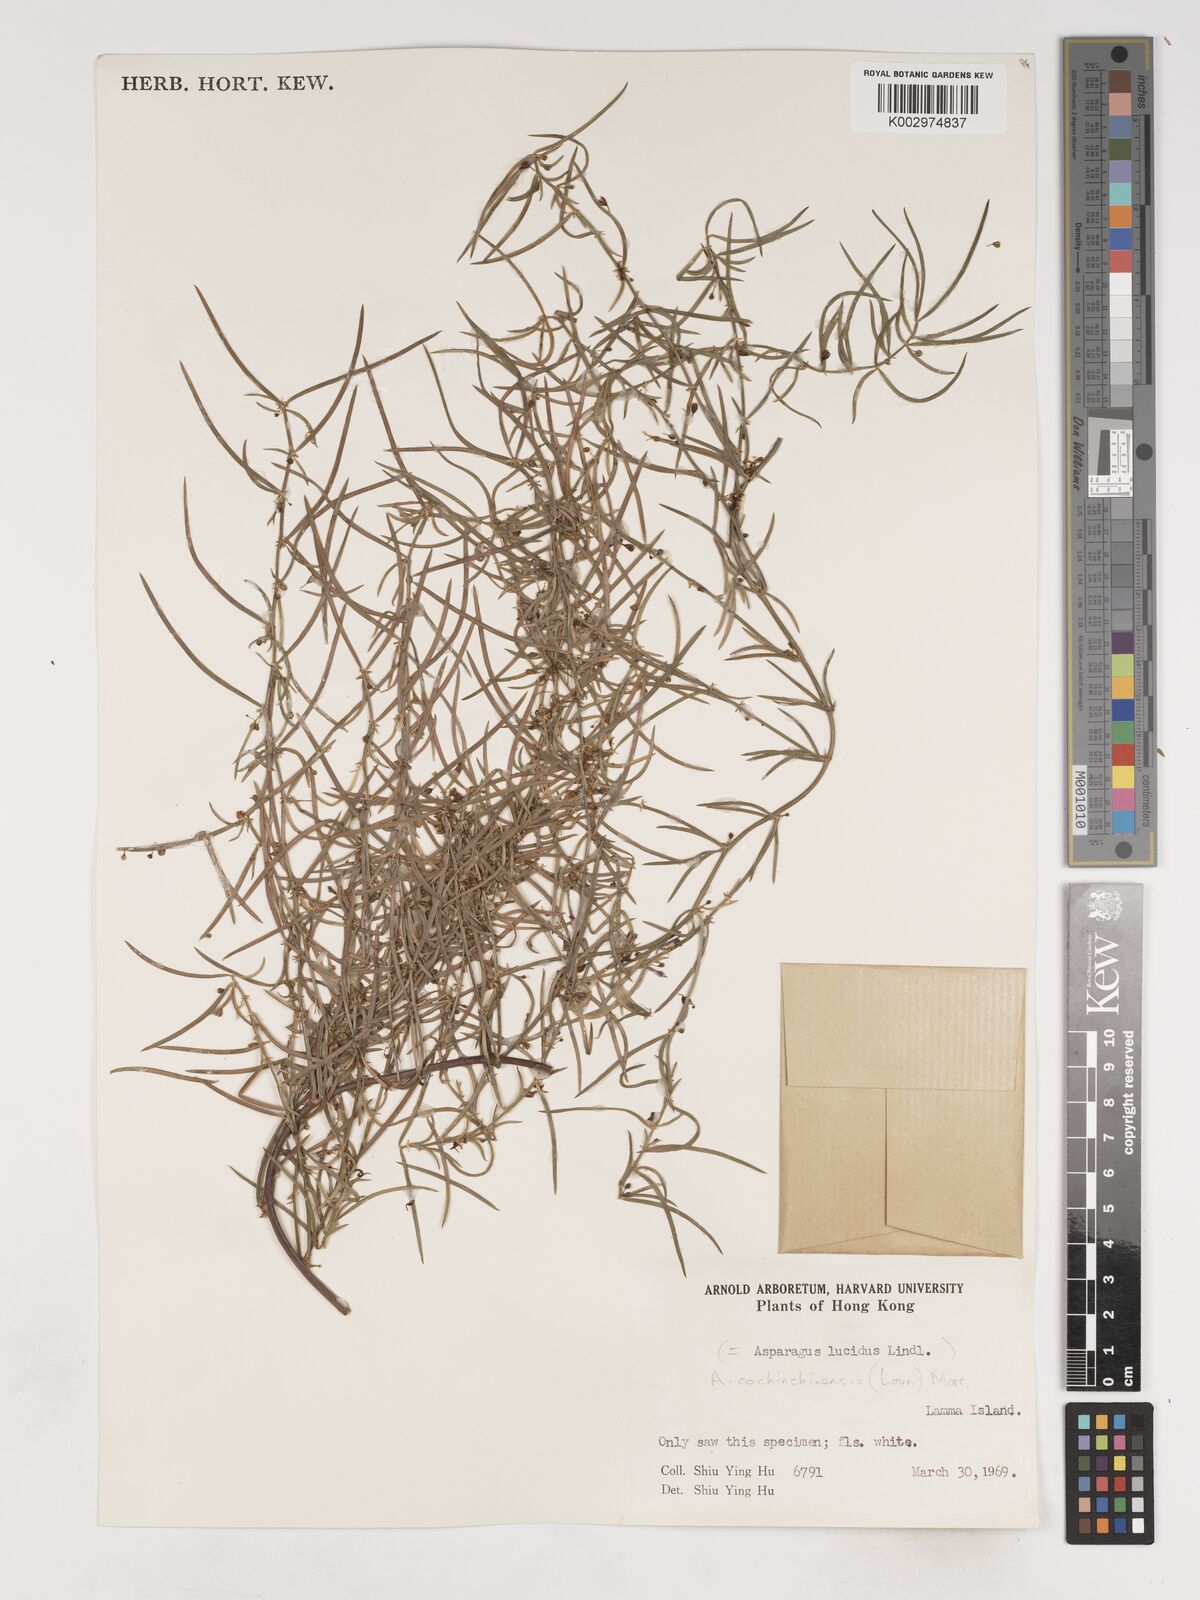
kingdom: Plantae
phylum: Tracheophyta
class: Liliopsida
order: Asparagales
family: Asparagaceae
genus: Asparagus
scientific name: Asparagus cochinchinensis
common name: Chinese asparagus
